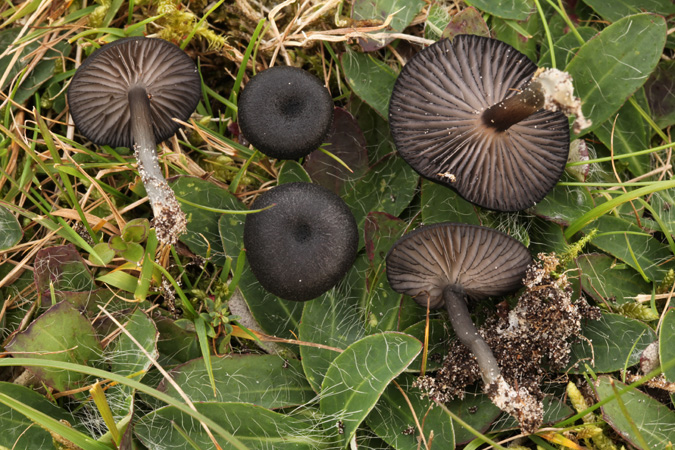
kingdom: Fungi
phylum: Basidiomycota
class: Agaricomycetes
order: Agaricales
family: Entolomataceae
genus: Entoloma
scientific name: Entoloma
